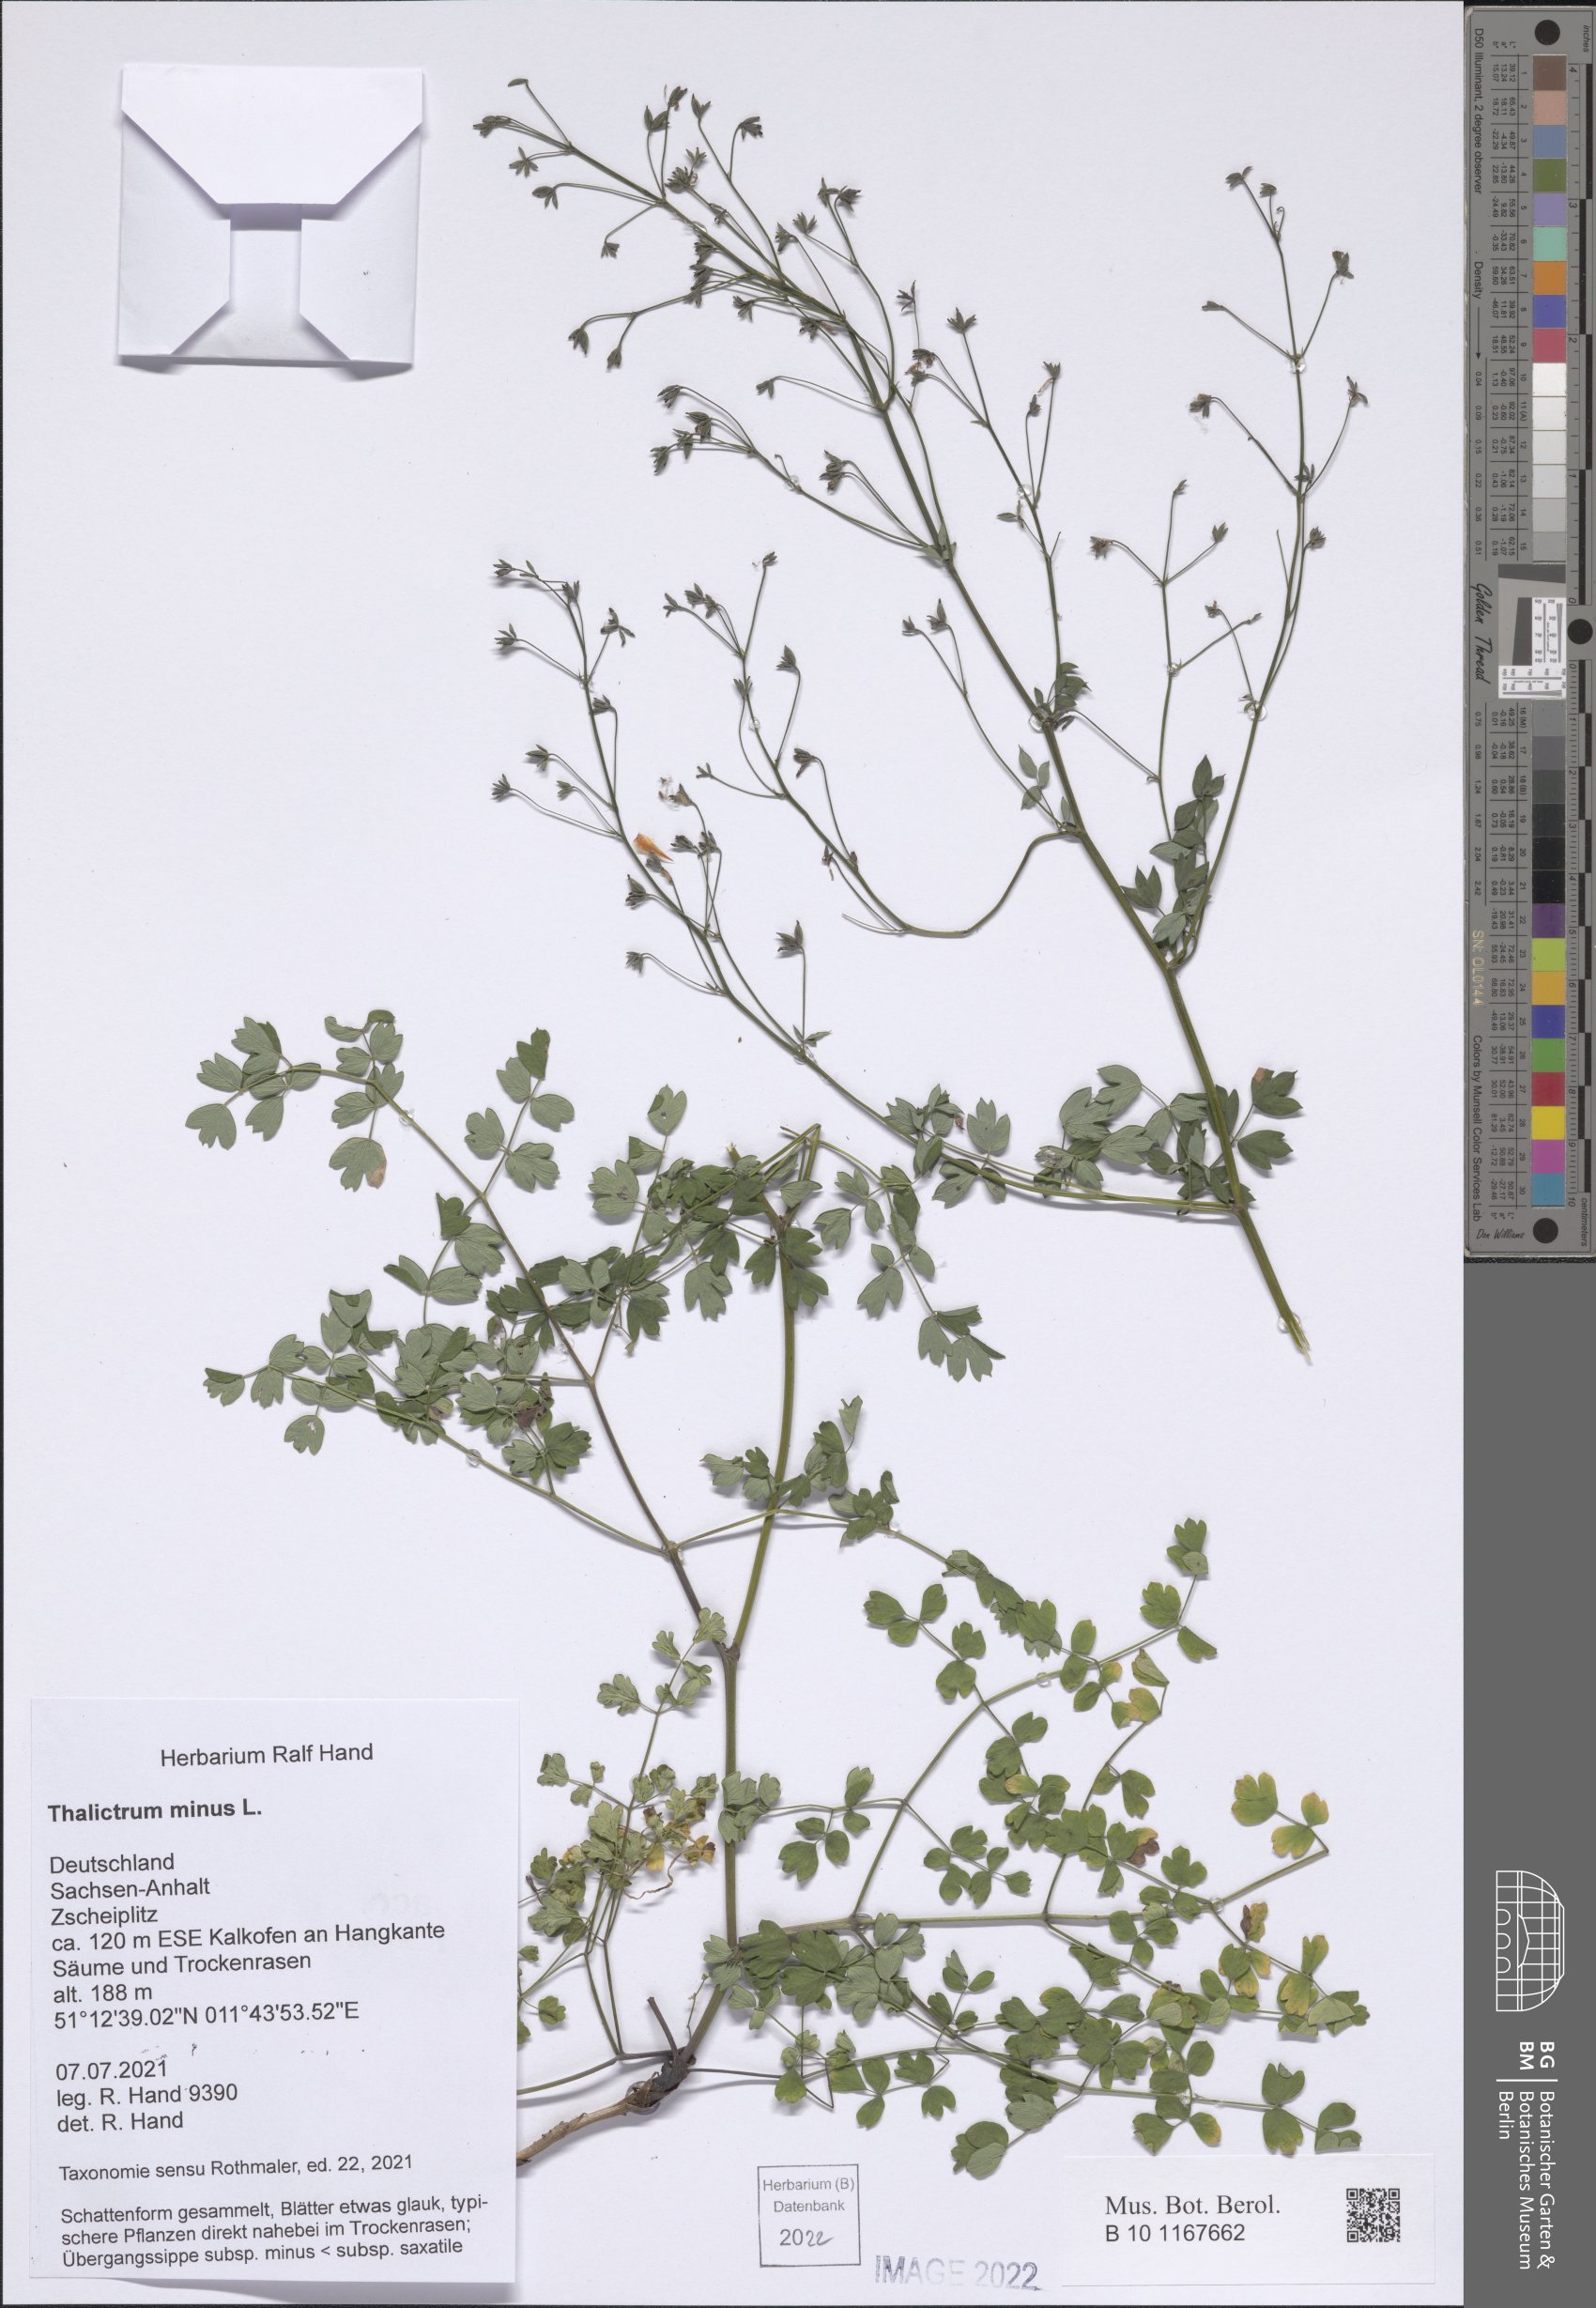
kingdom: Plantae
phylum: Tracheophyta
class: Magnoliopsida
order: Ranunculales
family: Ranunculaceae
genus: Thalictrum
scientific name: Thalictrum minus
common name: Lesser meadow-rue
